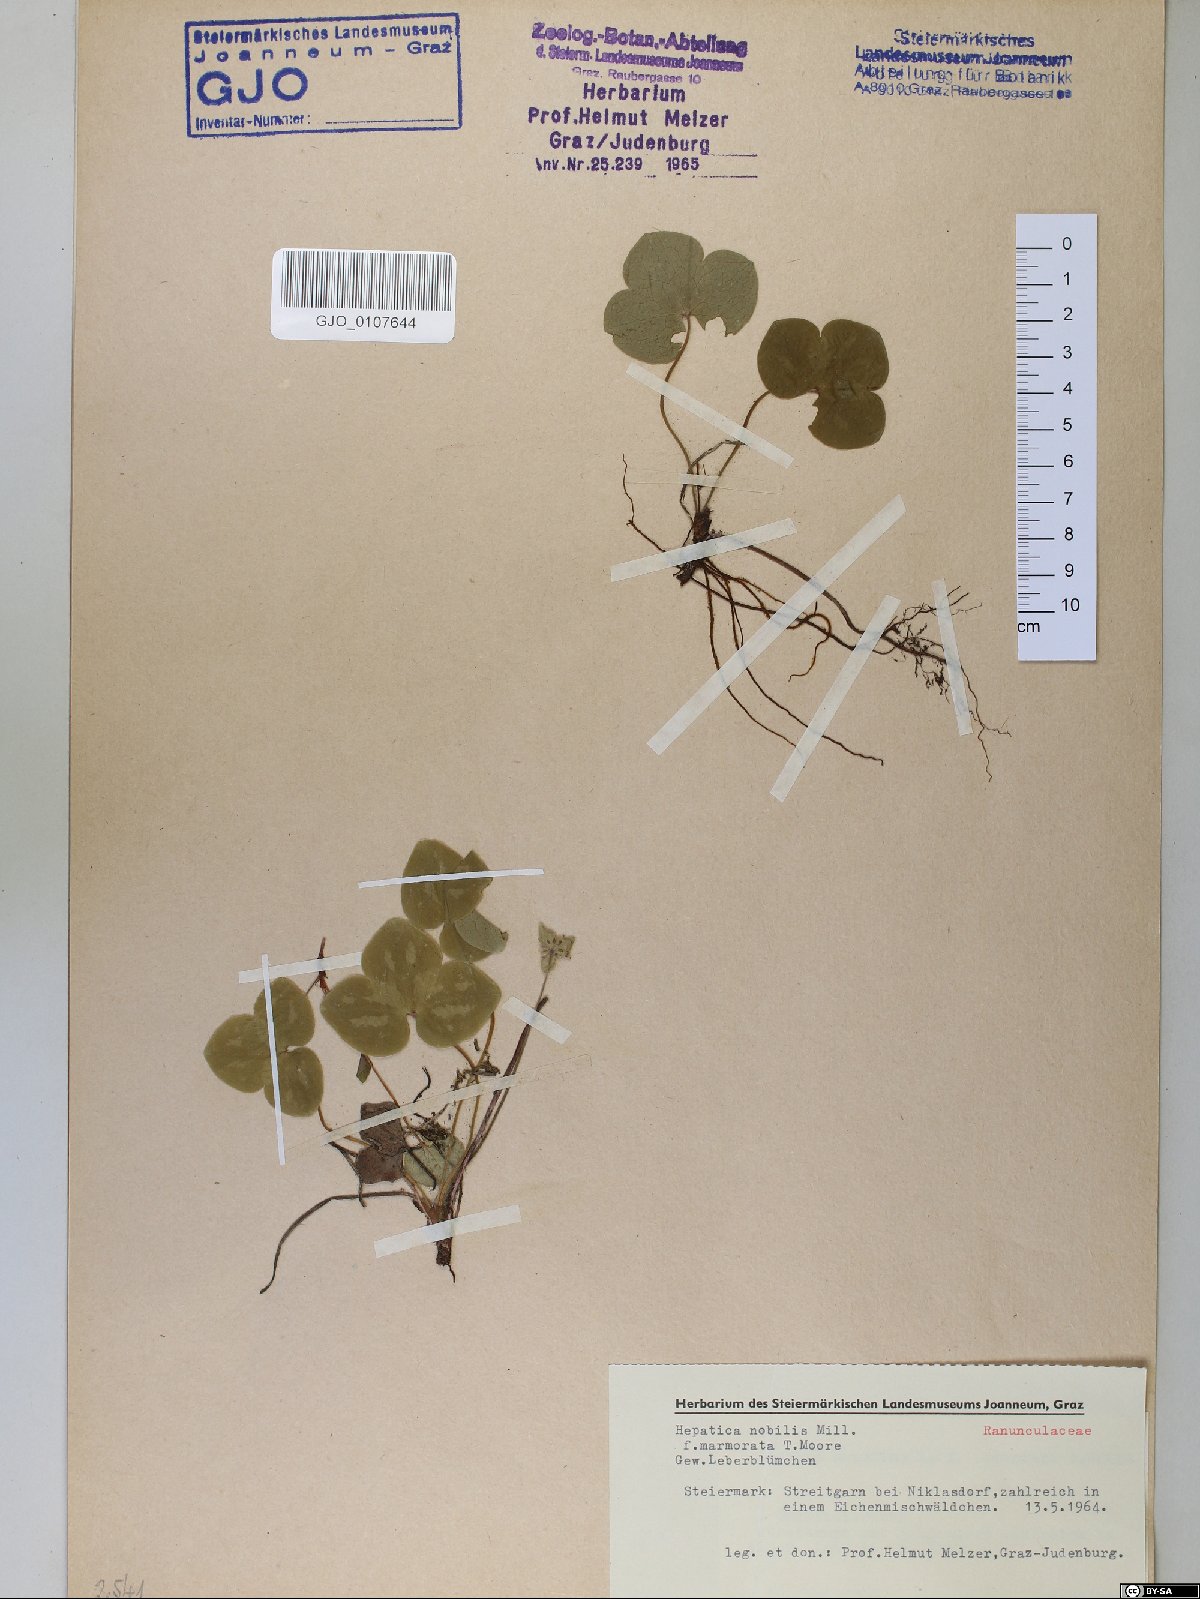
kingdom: Plantae
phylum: Tracheophyta
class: Magnoliopsida
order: Ranunculales
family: Ranunculaceae
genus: Hepatica
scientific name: Hepatica nobilis
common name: Liverleaf
